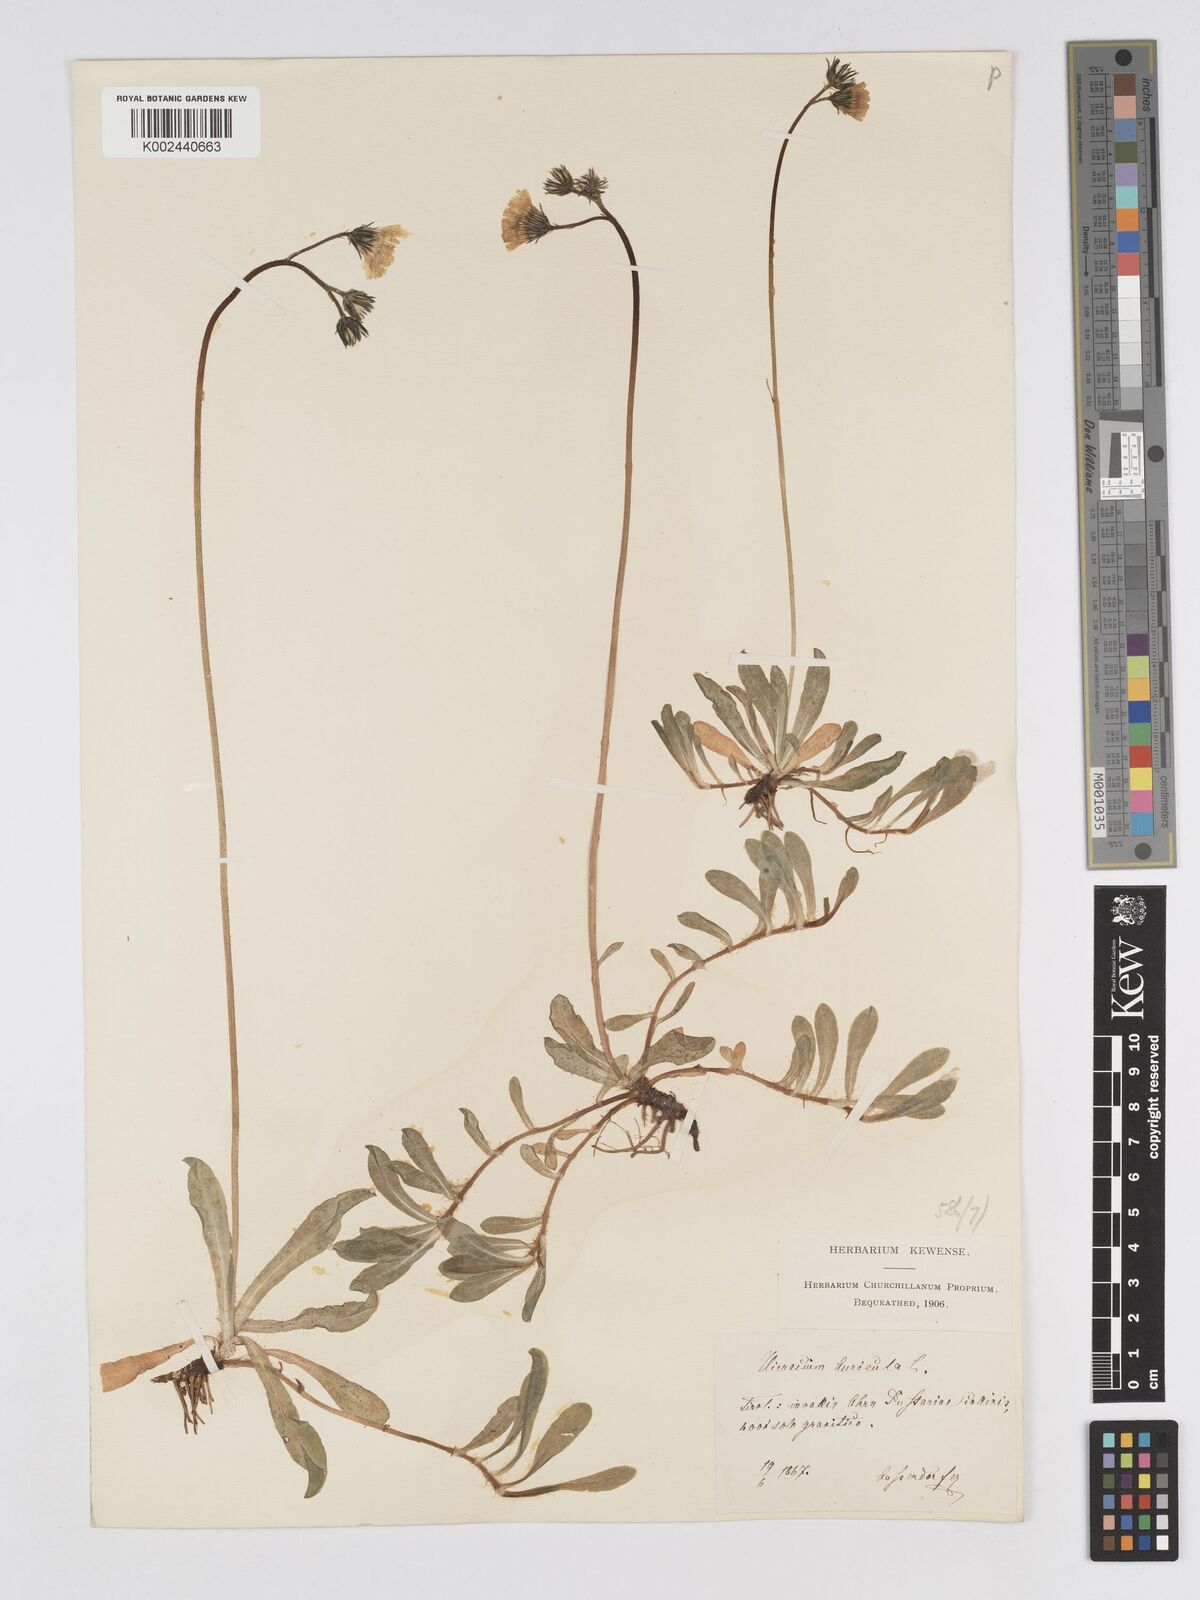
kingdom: Plantae
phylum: Tracheophyta
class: Magnoliopsida
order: Asterales
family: Asteraceae
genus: Pilosella
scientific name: Pilosella floribunda
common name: Glaucous hawkweed
